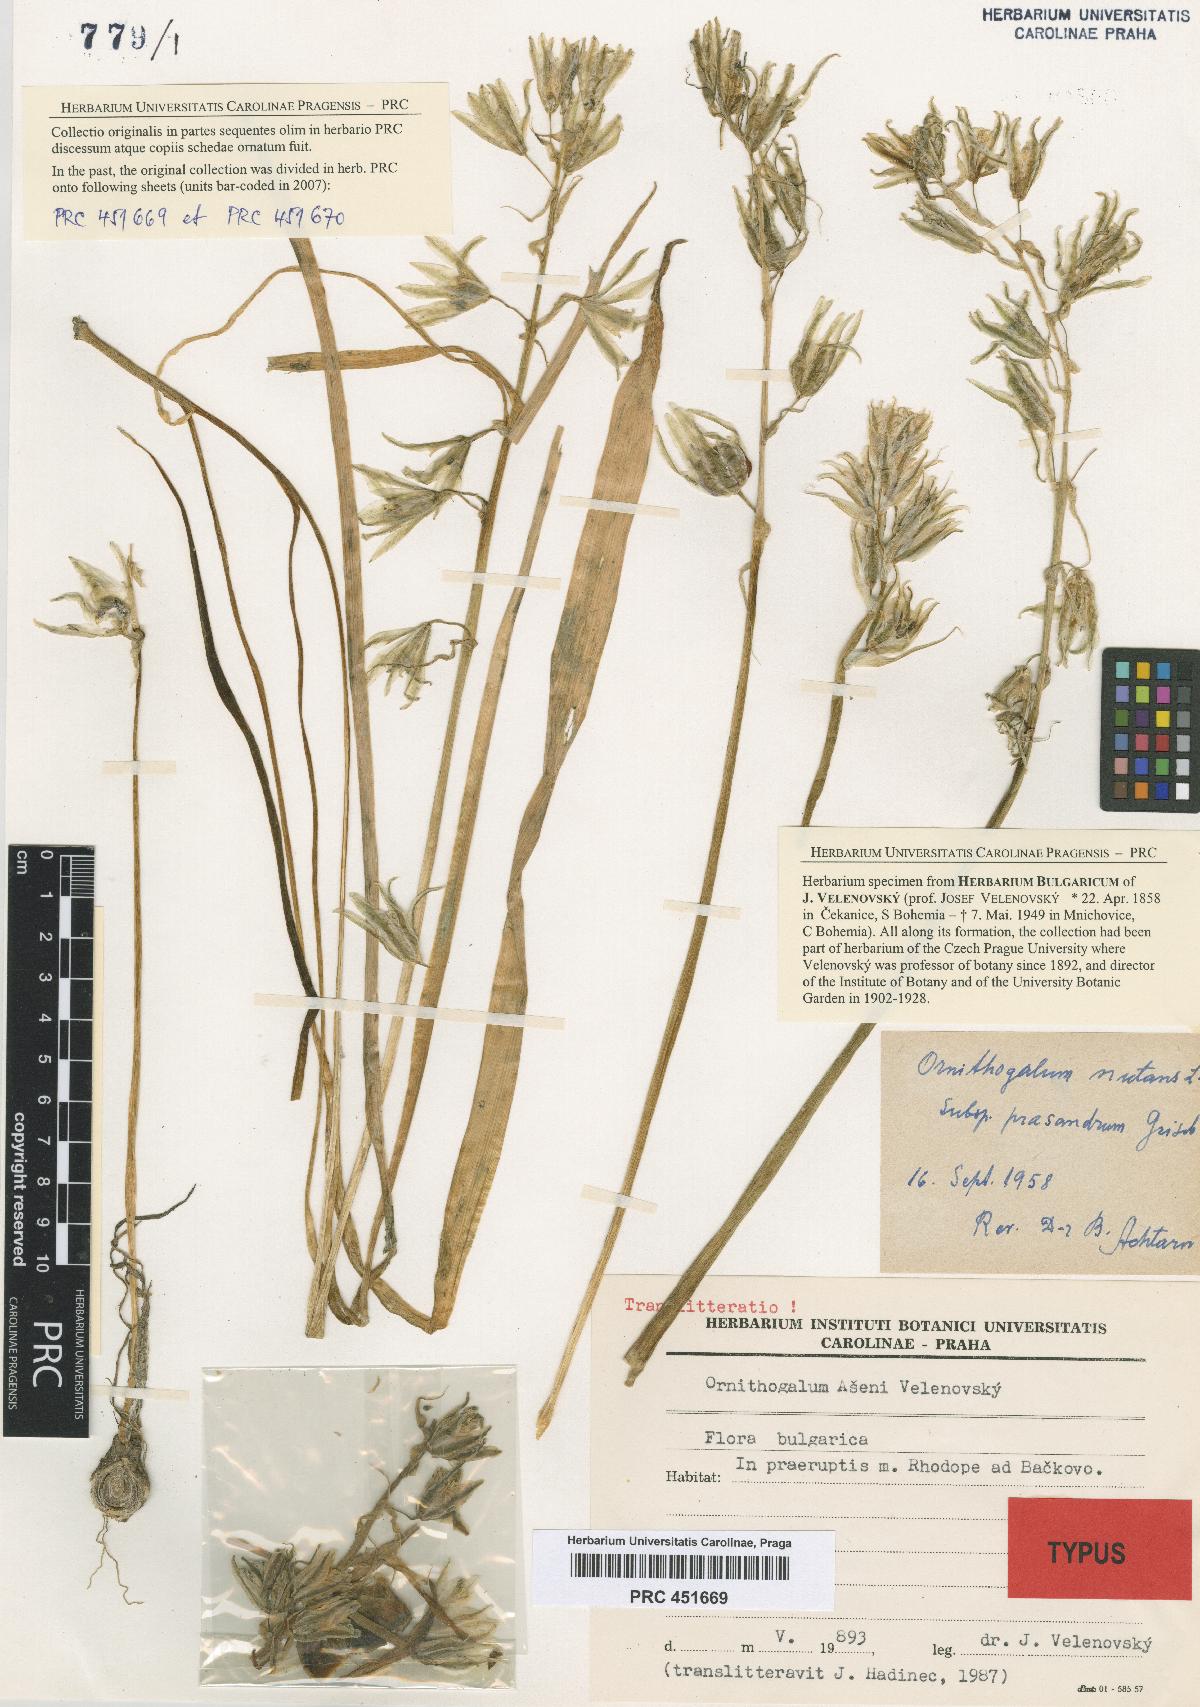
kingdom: Plantae
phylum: Tracheophyta
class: Liliopsida
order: Asparagales
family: Asparagaceae
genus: Ornithogalum
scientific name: Ornithogalum nutans
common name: Drooping star-of-bethlehem
